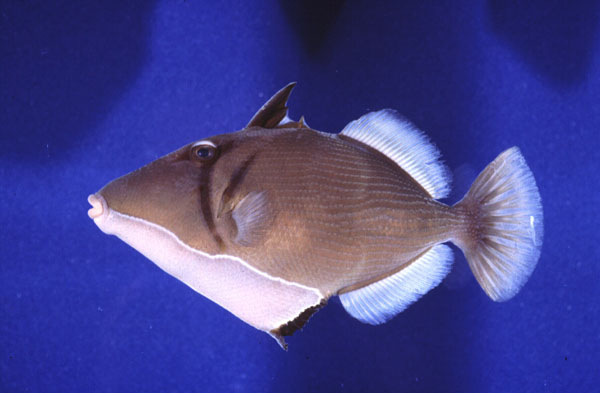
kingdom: Animalia
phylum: Chordata
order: Tetraodontiformes
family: Balistidae
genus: Sufflamen
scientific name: Sufflamen bursa
